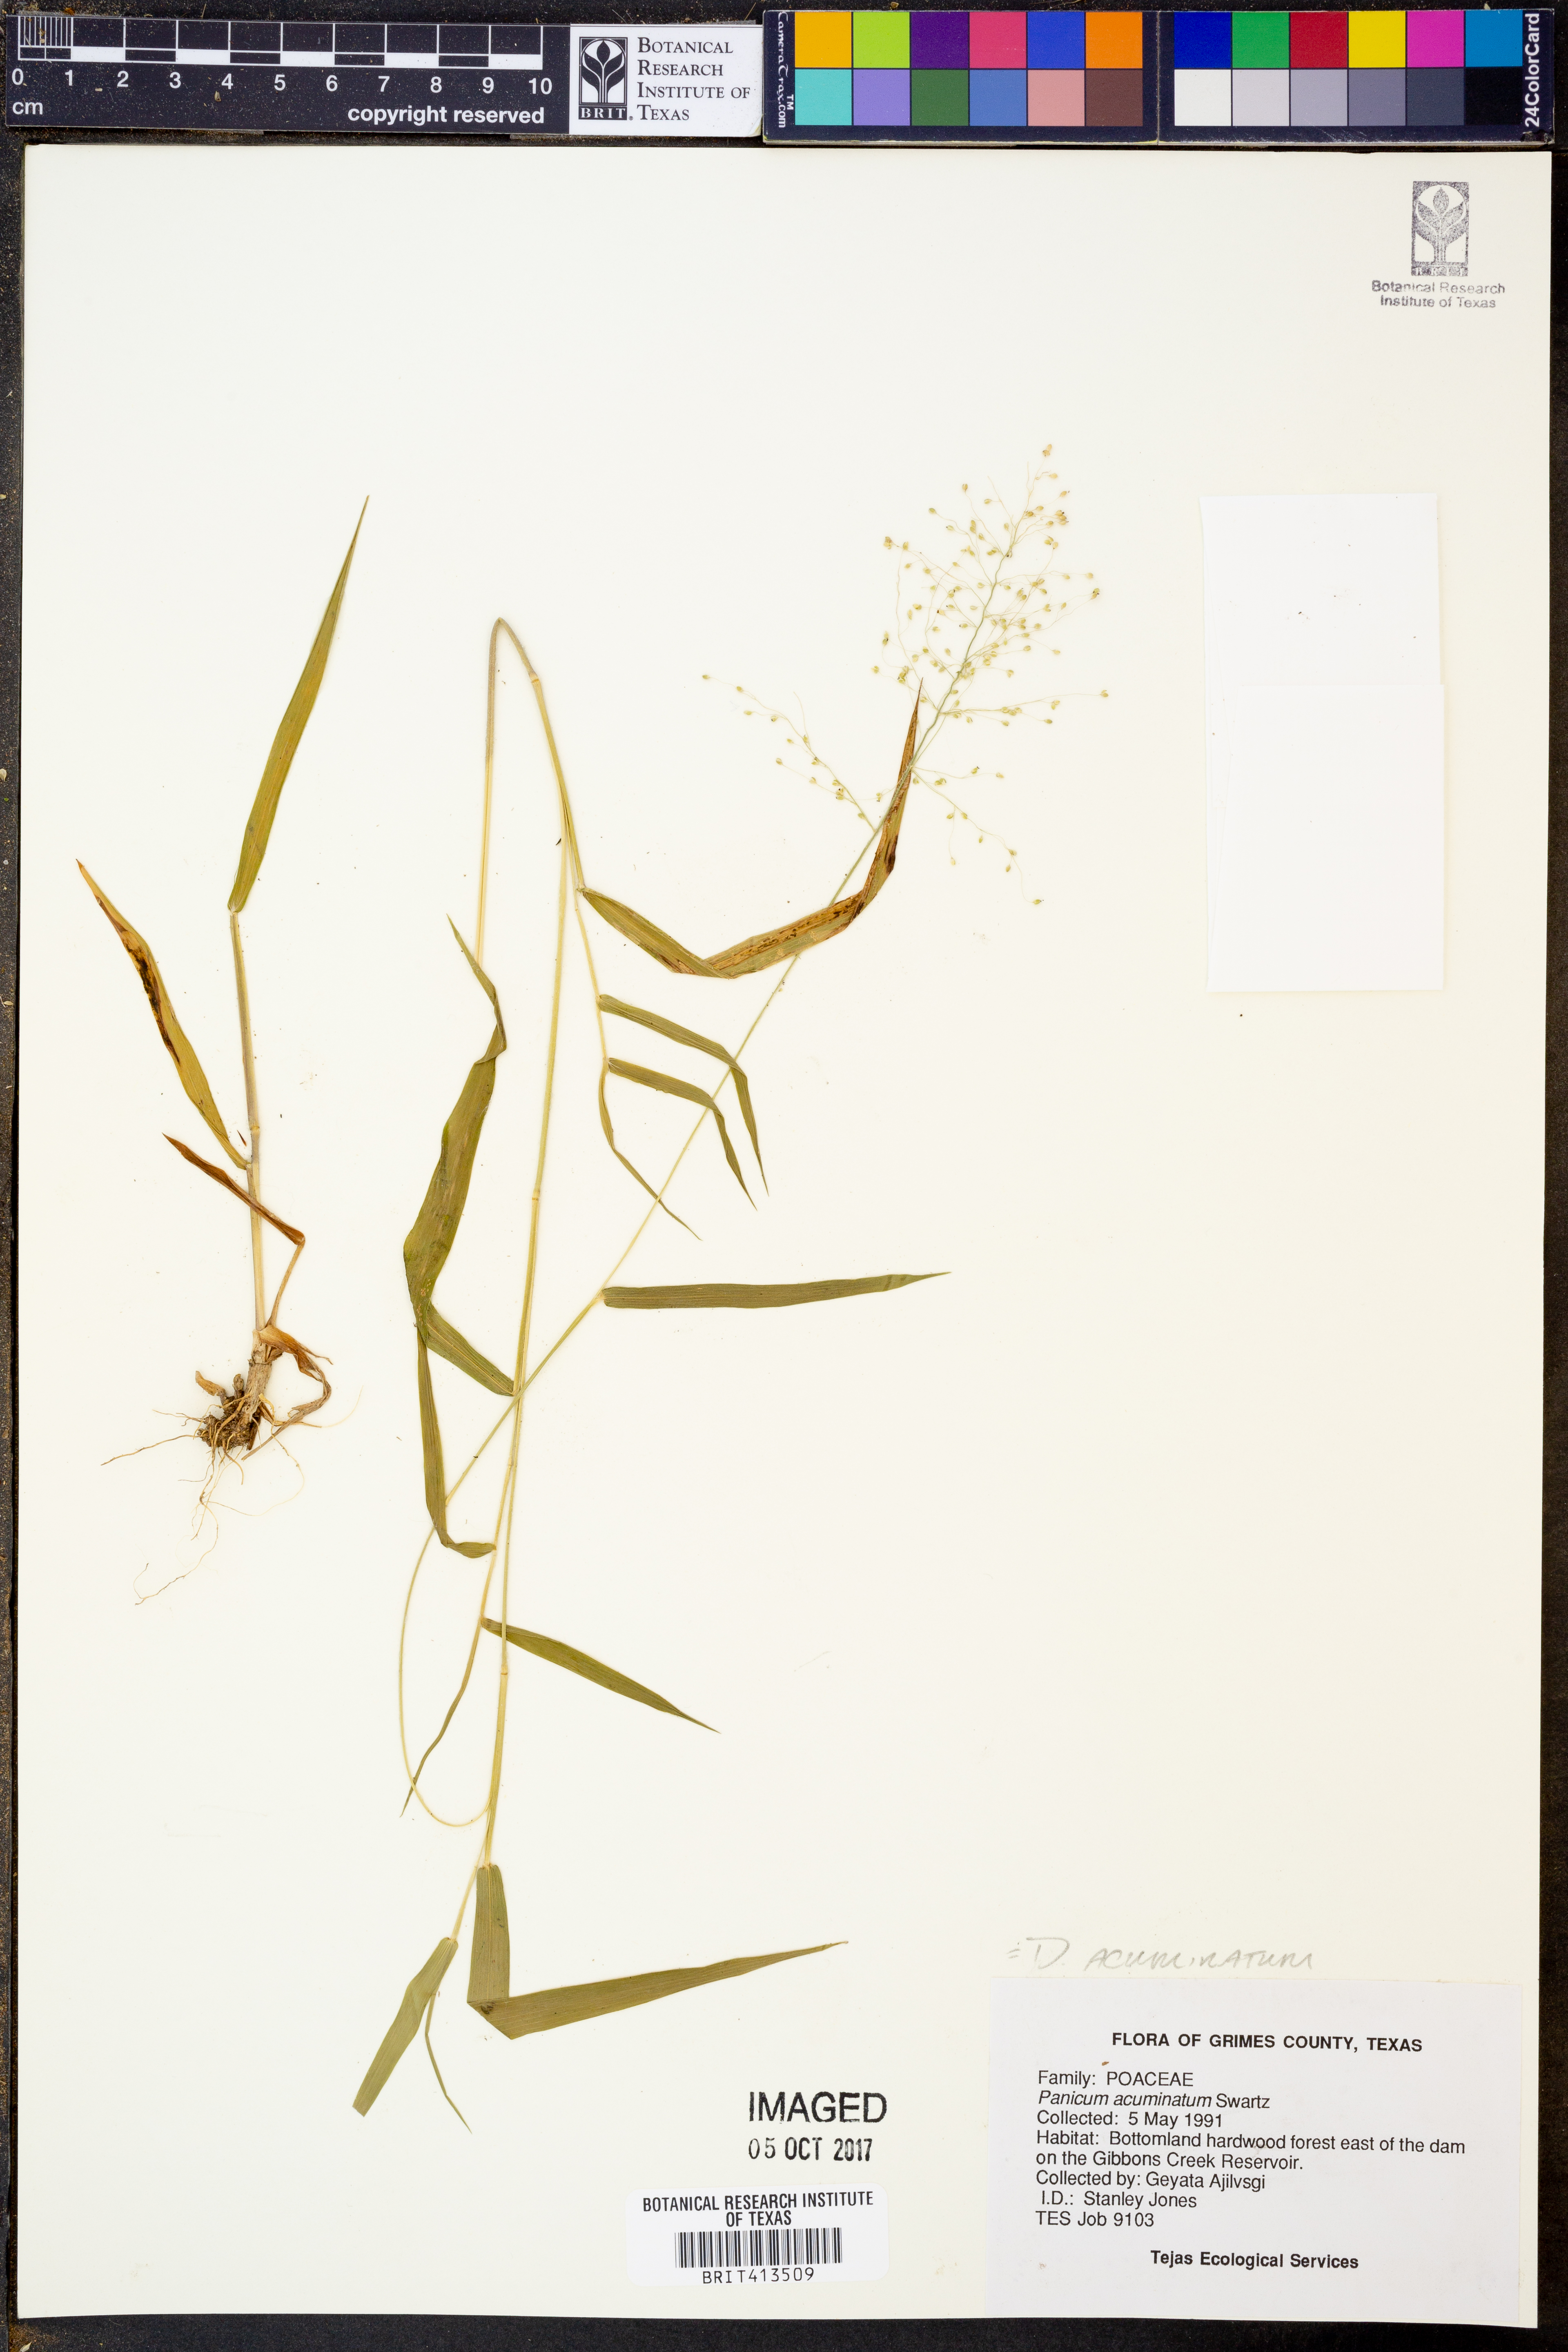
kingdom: Plantae
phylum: Tracheophyta
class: Liliopsida
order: Poales
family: Poaceae
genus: Dichanthelium
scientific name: Dichanthelium acuminatum
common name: Hairy panic grass
